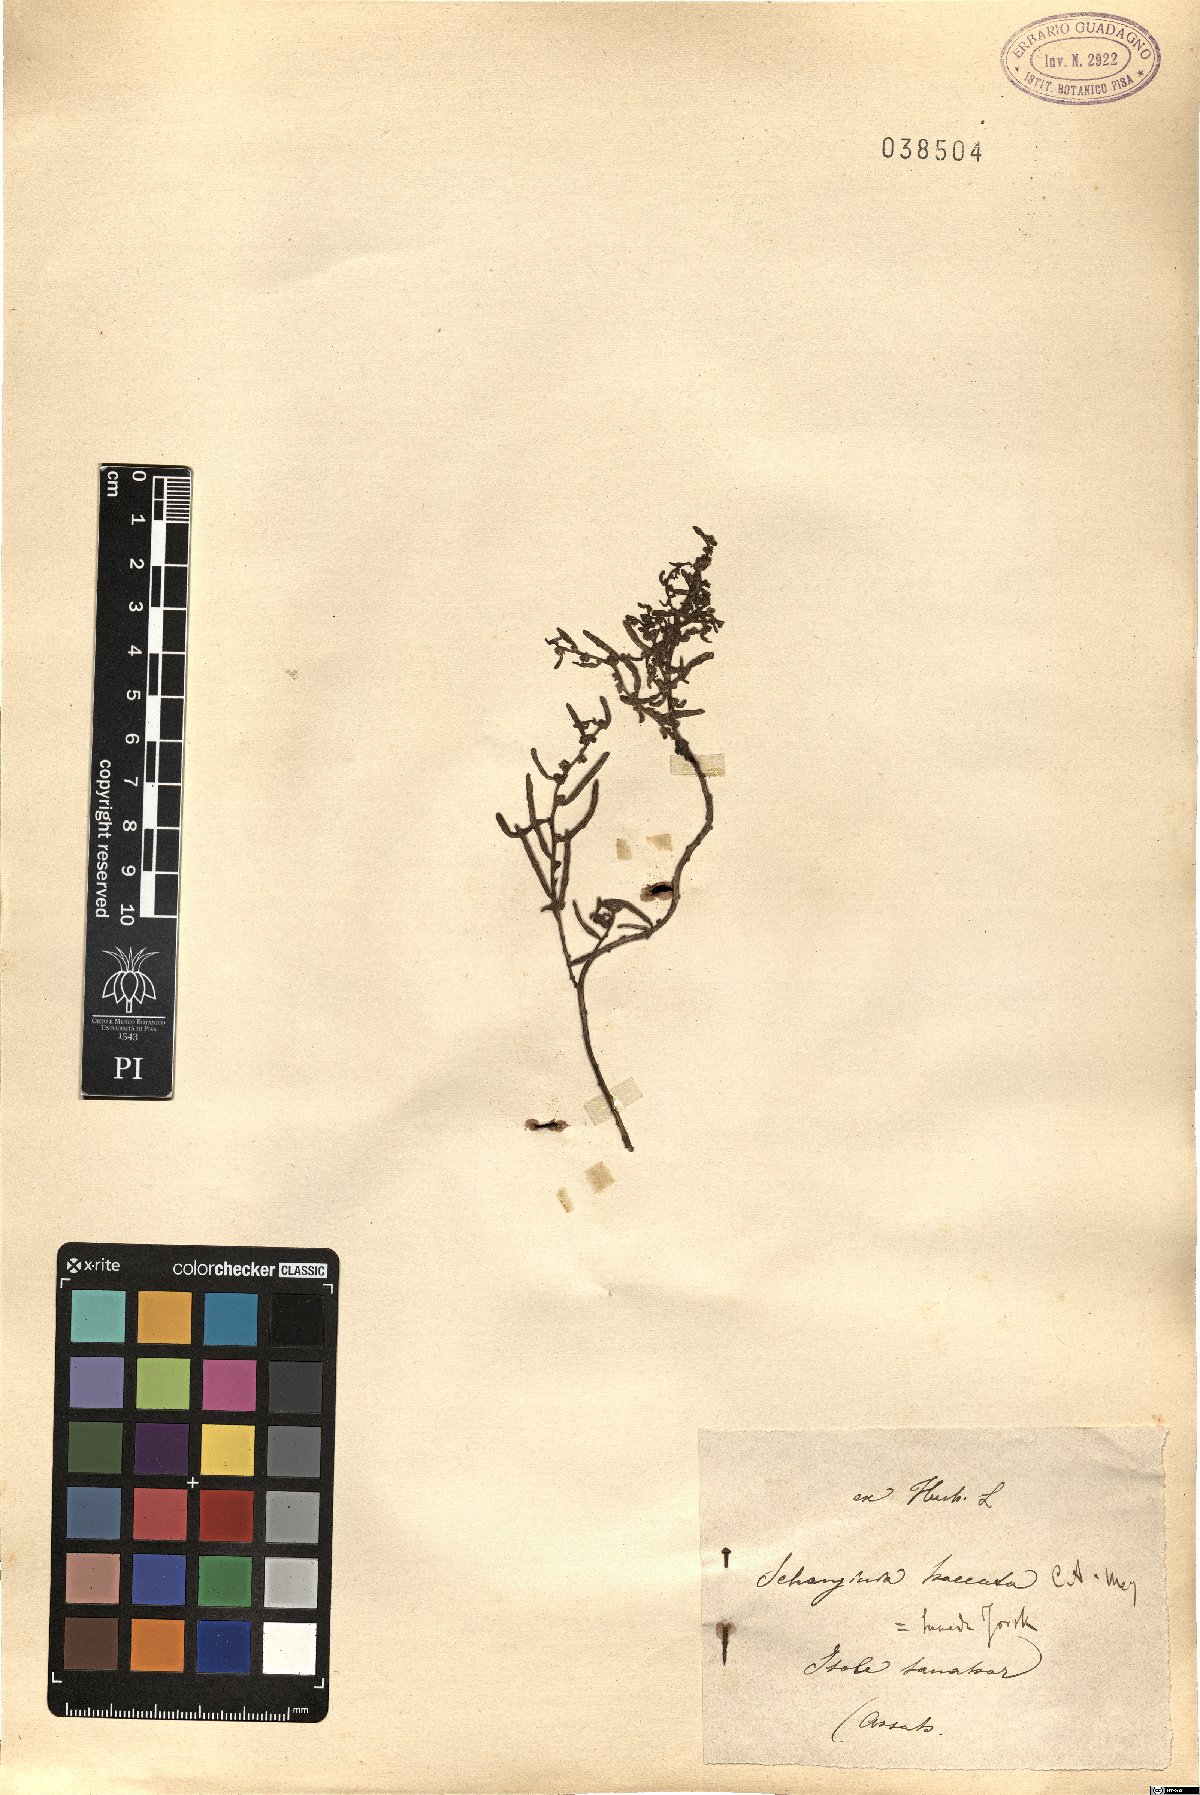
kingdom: Plantae
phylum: Tracheophyta
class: Magnoliopsida
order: Caryophyllales
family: Amaranthaceae
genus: Suaeda
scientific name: Suaeda aegyptiaca
